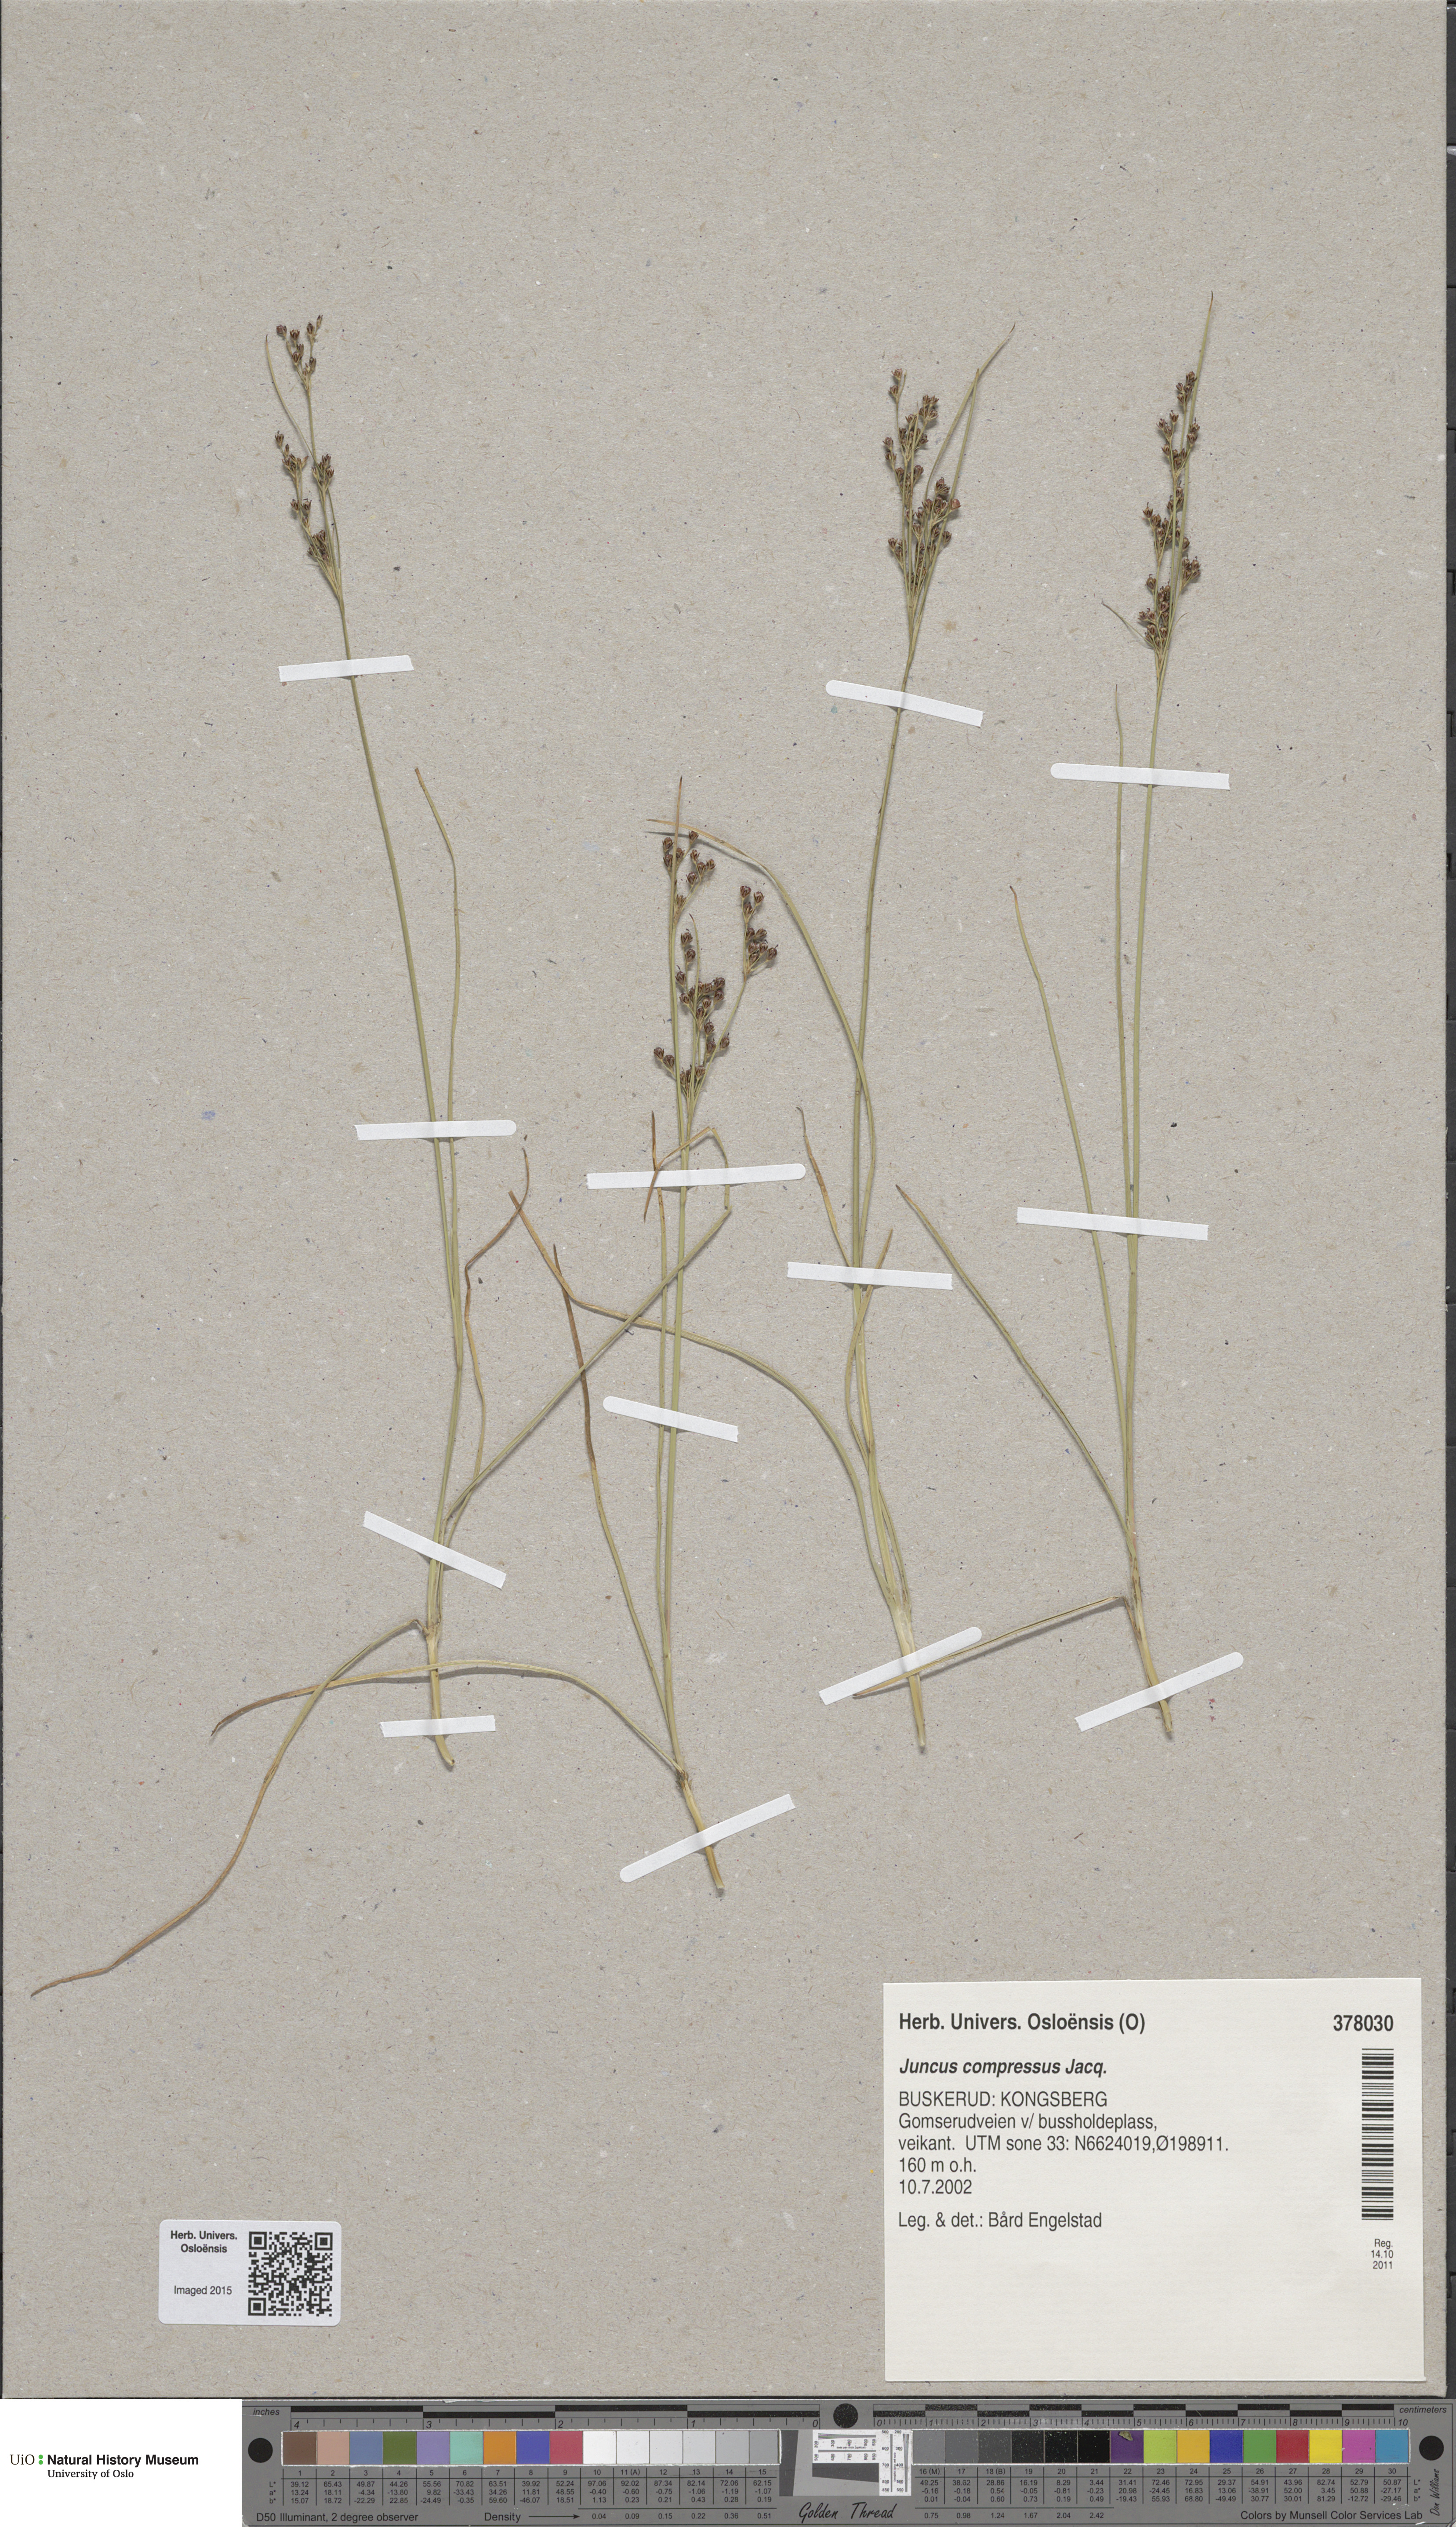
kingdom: Plantae
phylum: Tracheophyta
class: Liliopsida
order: Poales
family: Juncaceae
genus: Juncus
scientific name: Juncus compressus
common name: Round-fruited rush
